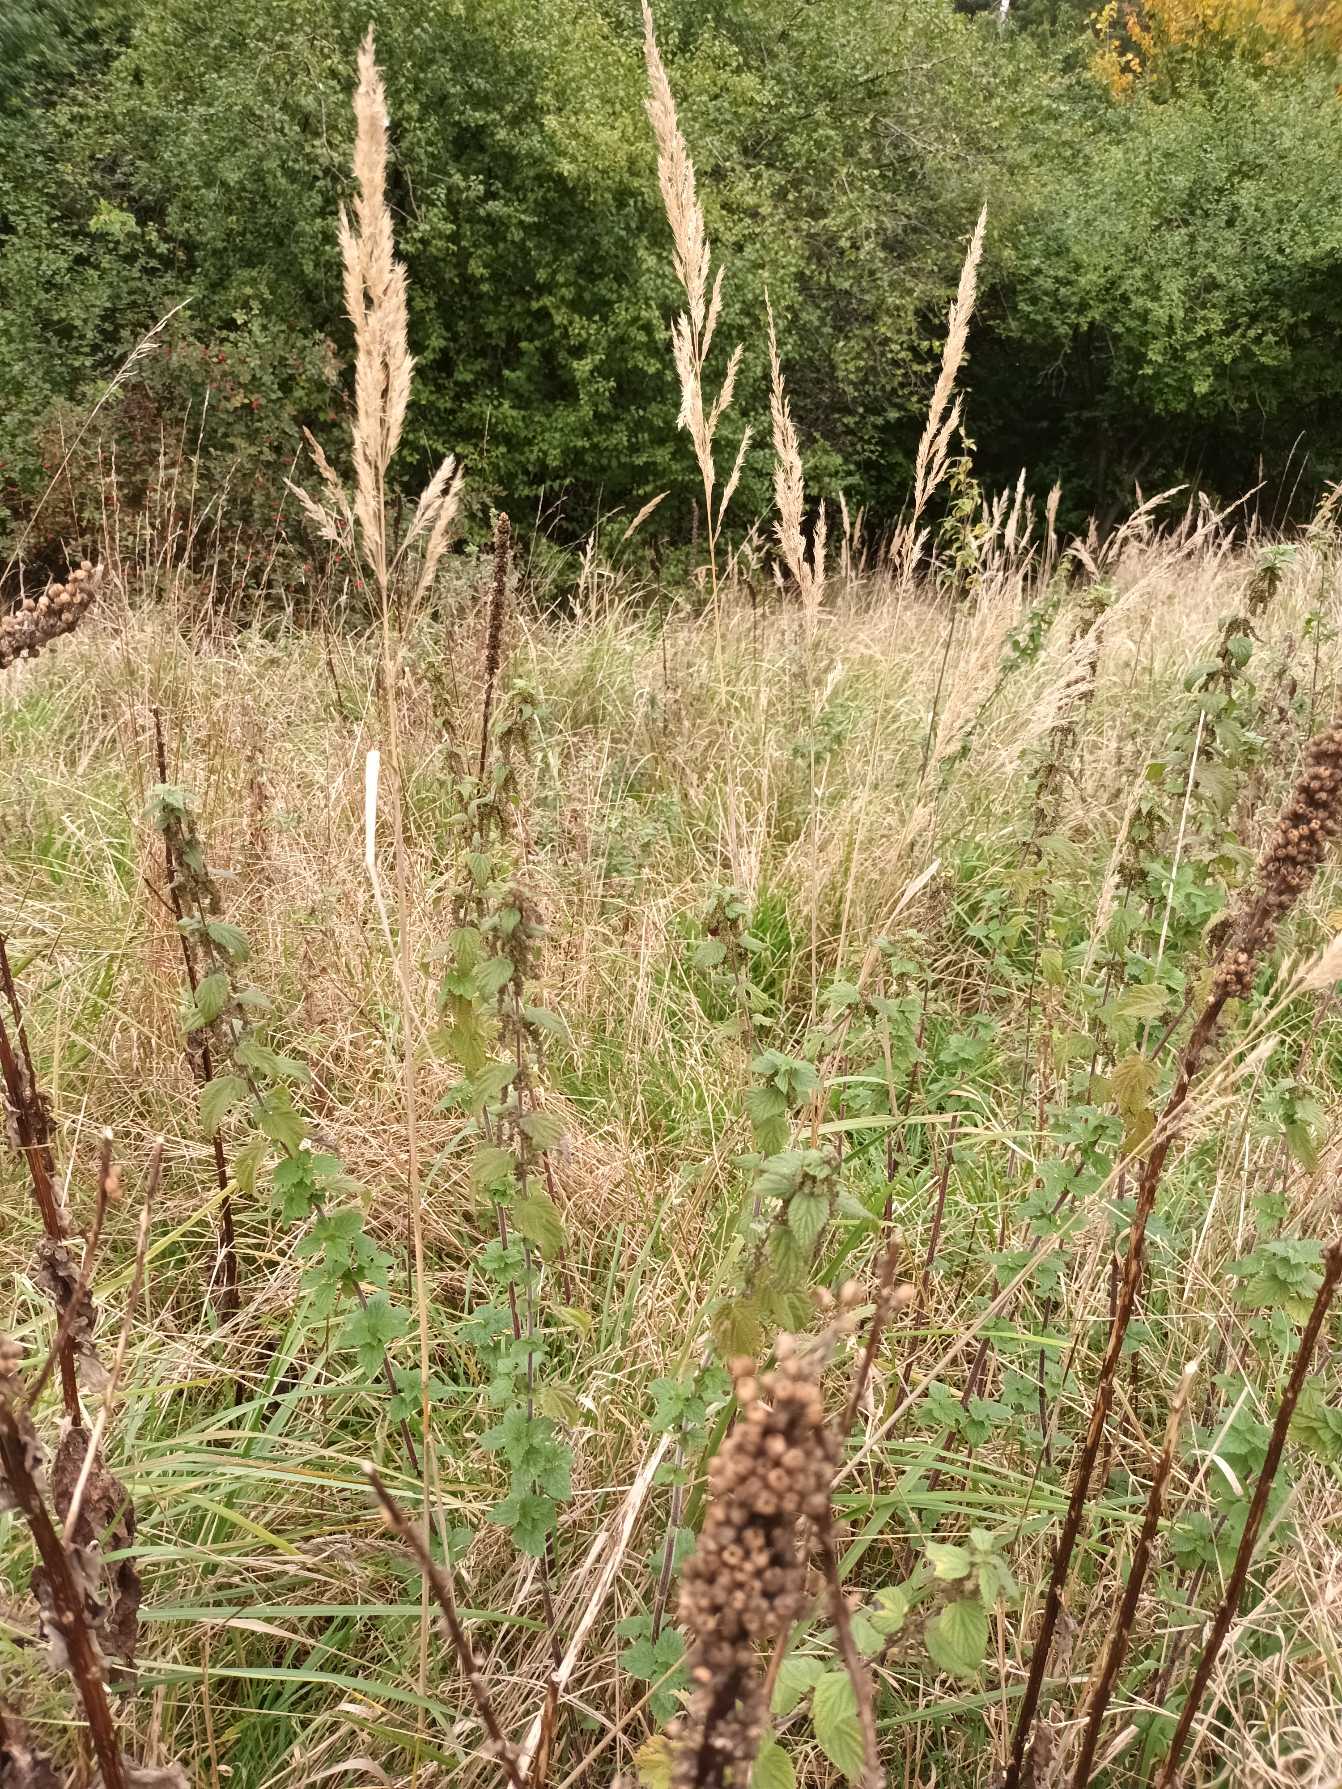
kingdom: Plantae
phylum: Tracheophyta
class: Liliopsida
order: Poales
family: Poaceae
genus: Calamagrostis
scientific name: Calamagrostis epigejos
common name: Bjerg-rørhvene
